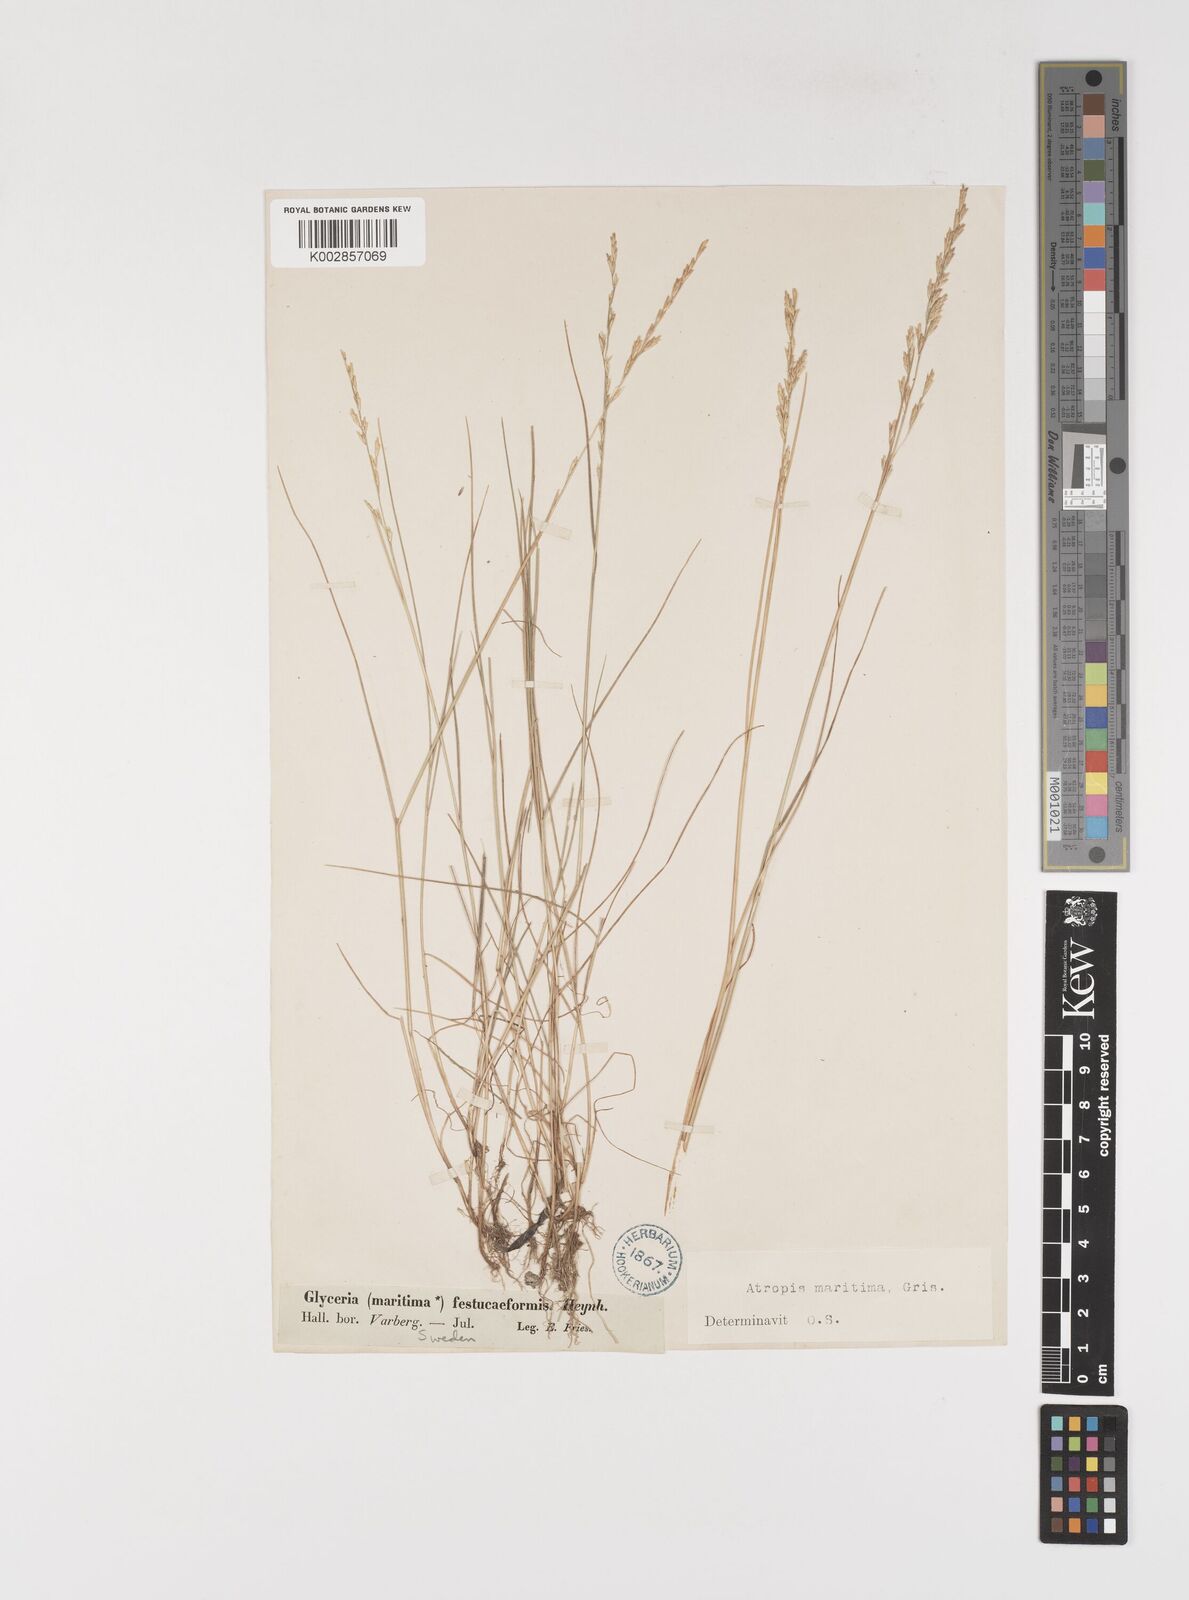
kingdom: Plantae
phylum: Tracheophyta
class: Liliopsida
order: Poales
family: Poaceae
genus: Puccinellia
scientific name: Puccinellia maritima
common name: Common saltmarsh grass
